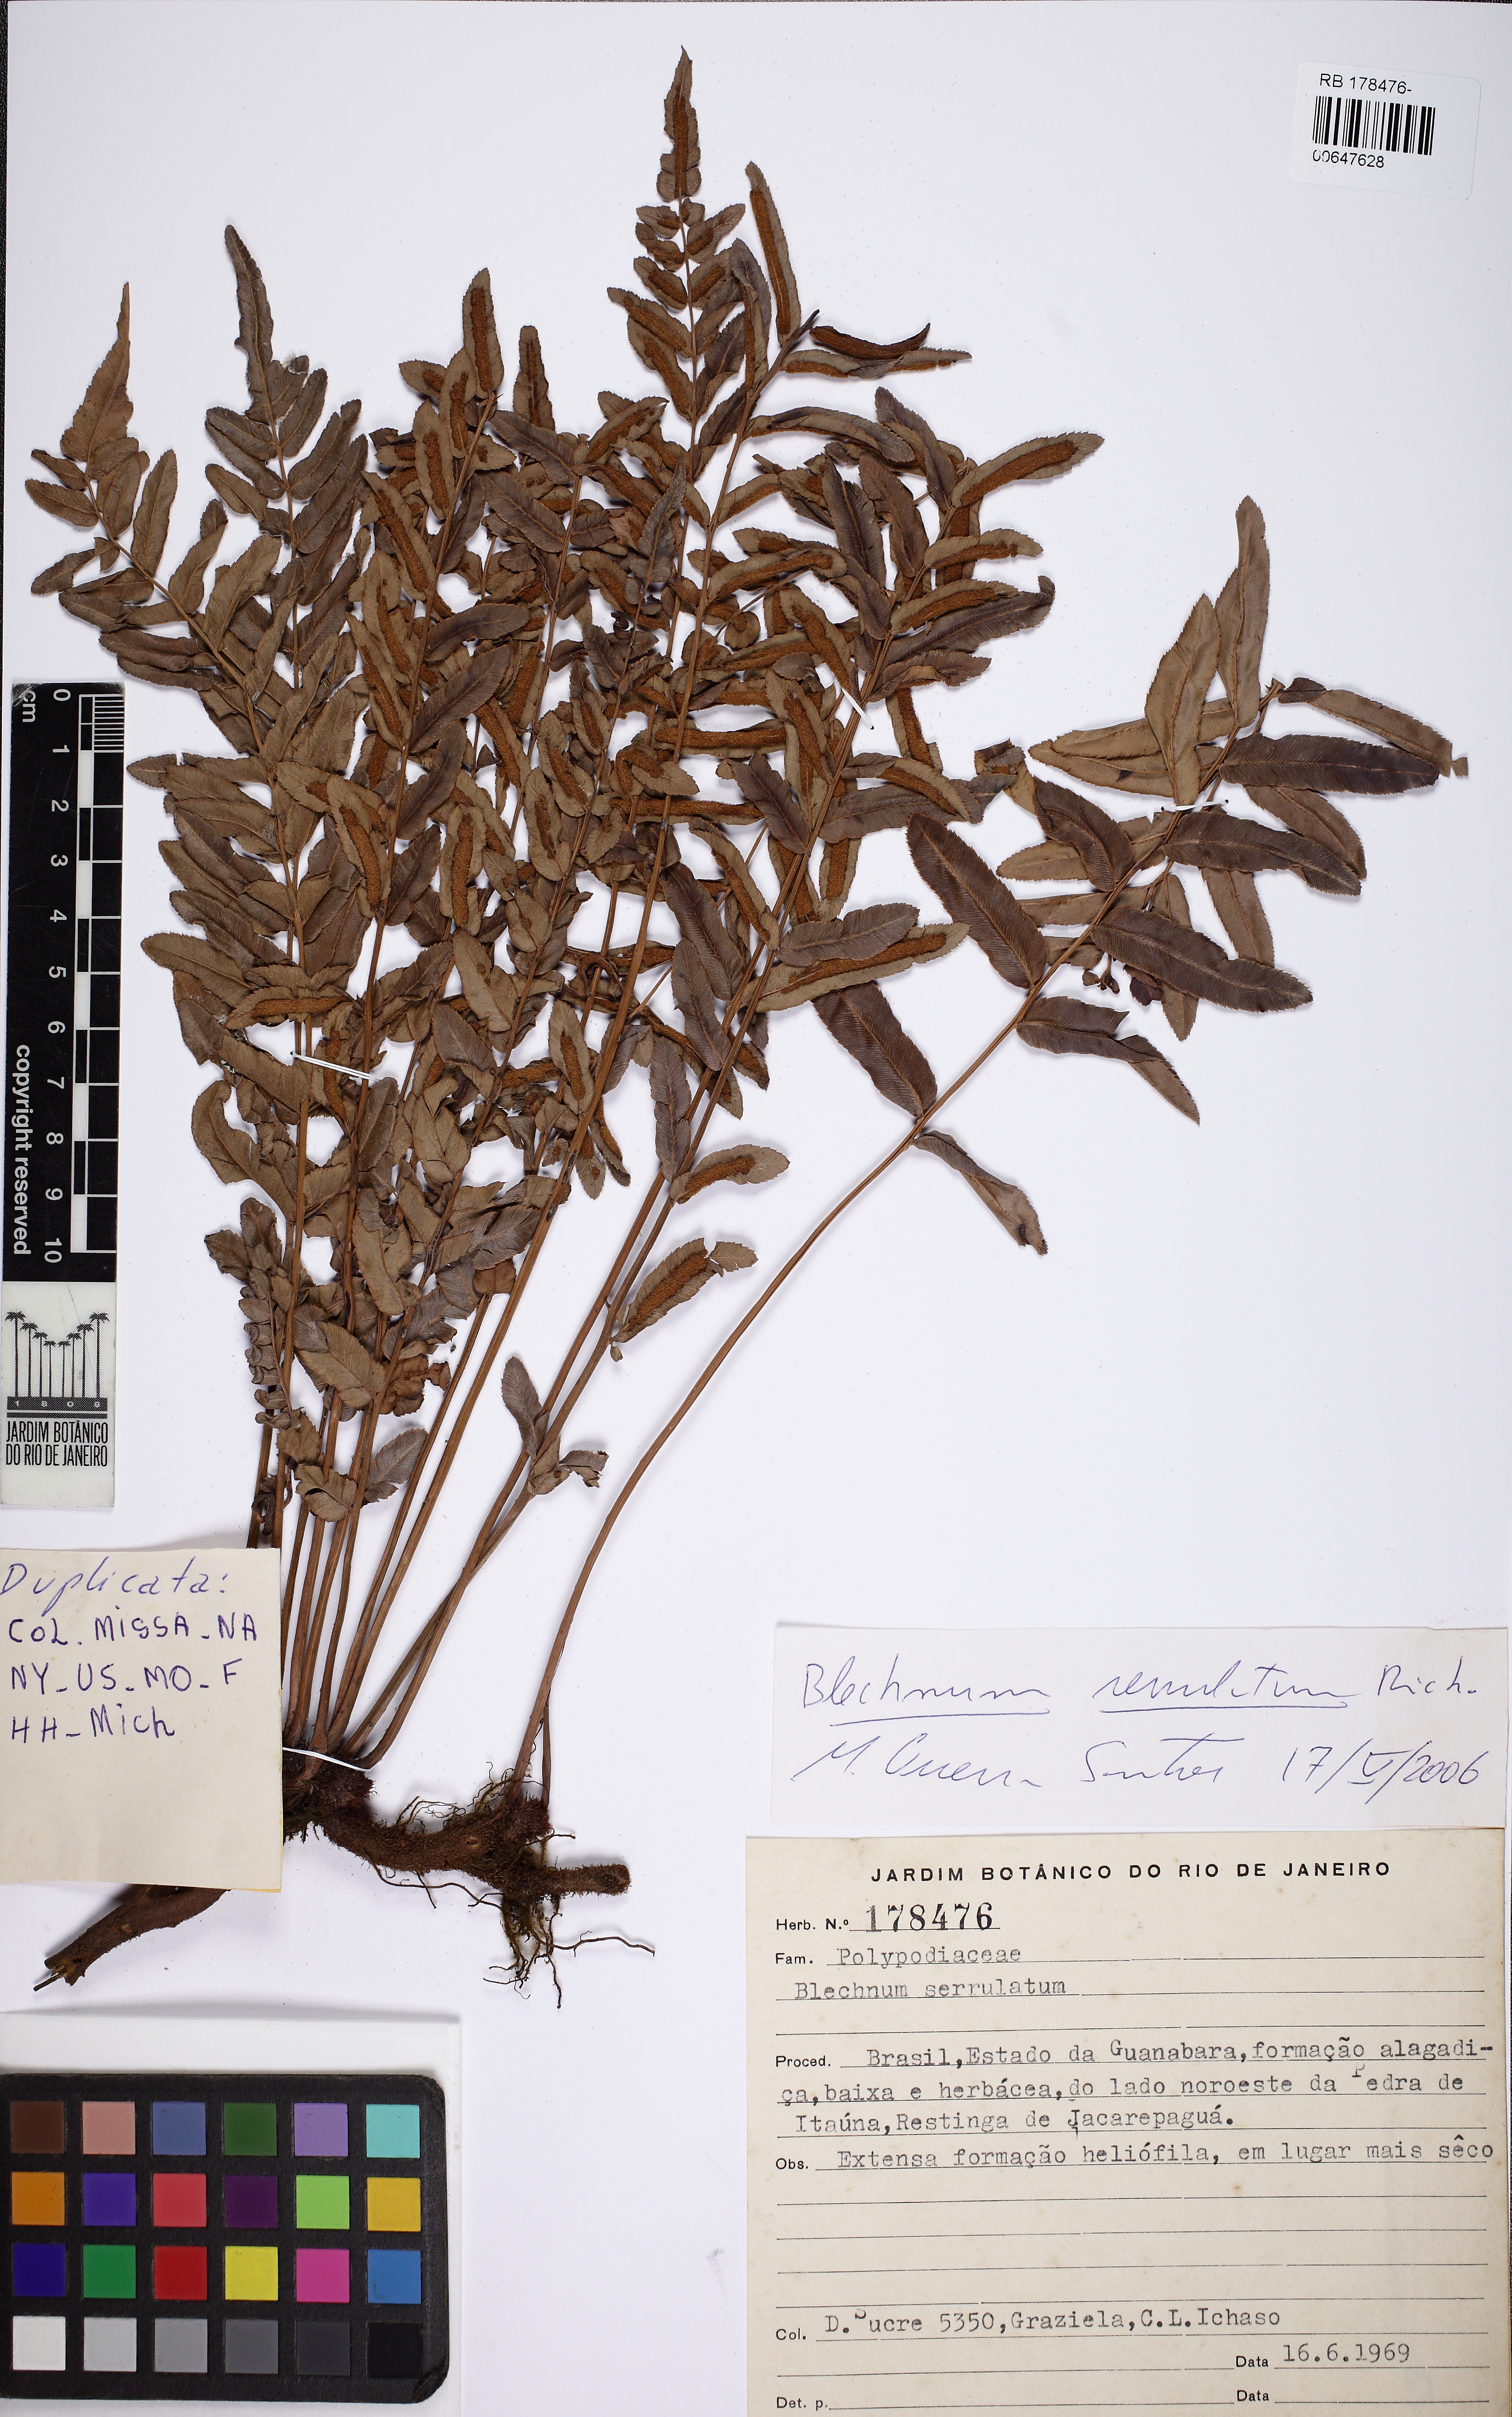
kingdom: Plantae
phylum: Tracheophyta
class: Polypodiopsida
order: Polypodiales
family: Blechnaceae
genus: Telmatoblechnum
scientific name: Telmatoblechnum serrulatum
